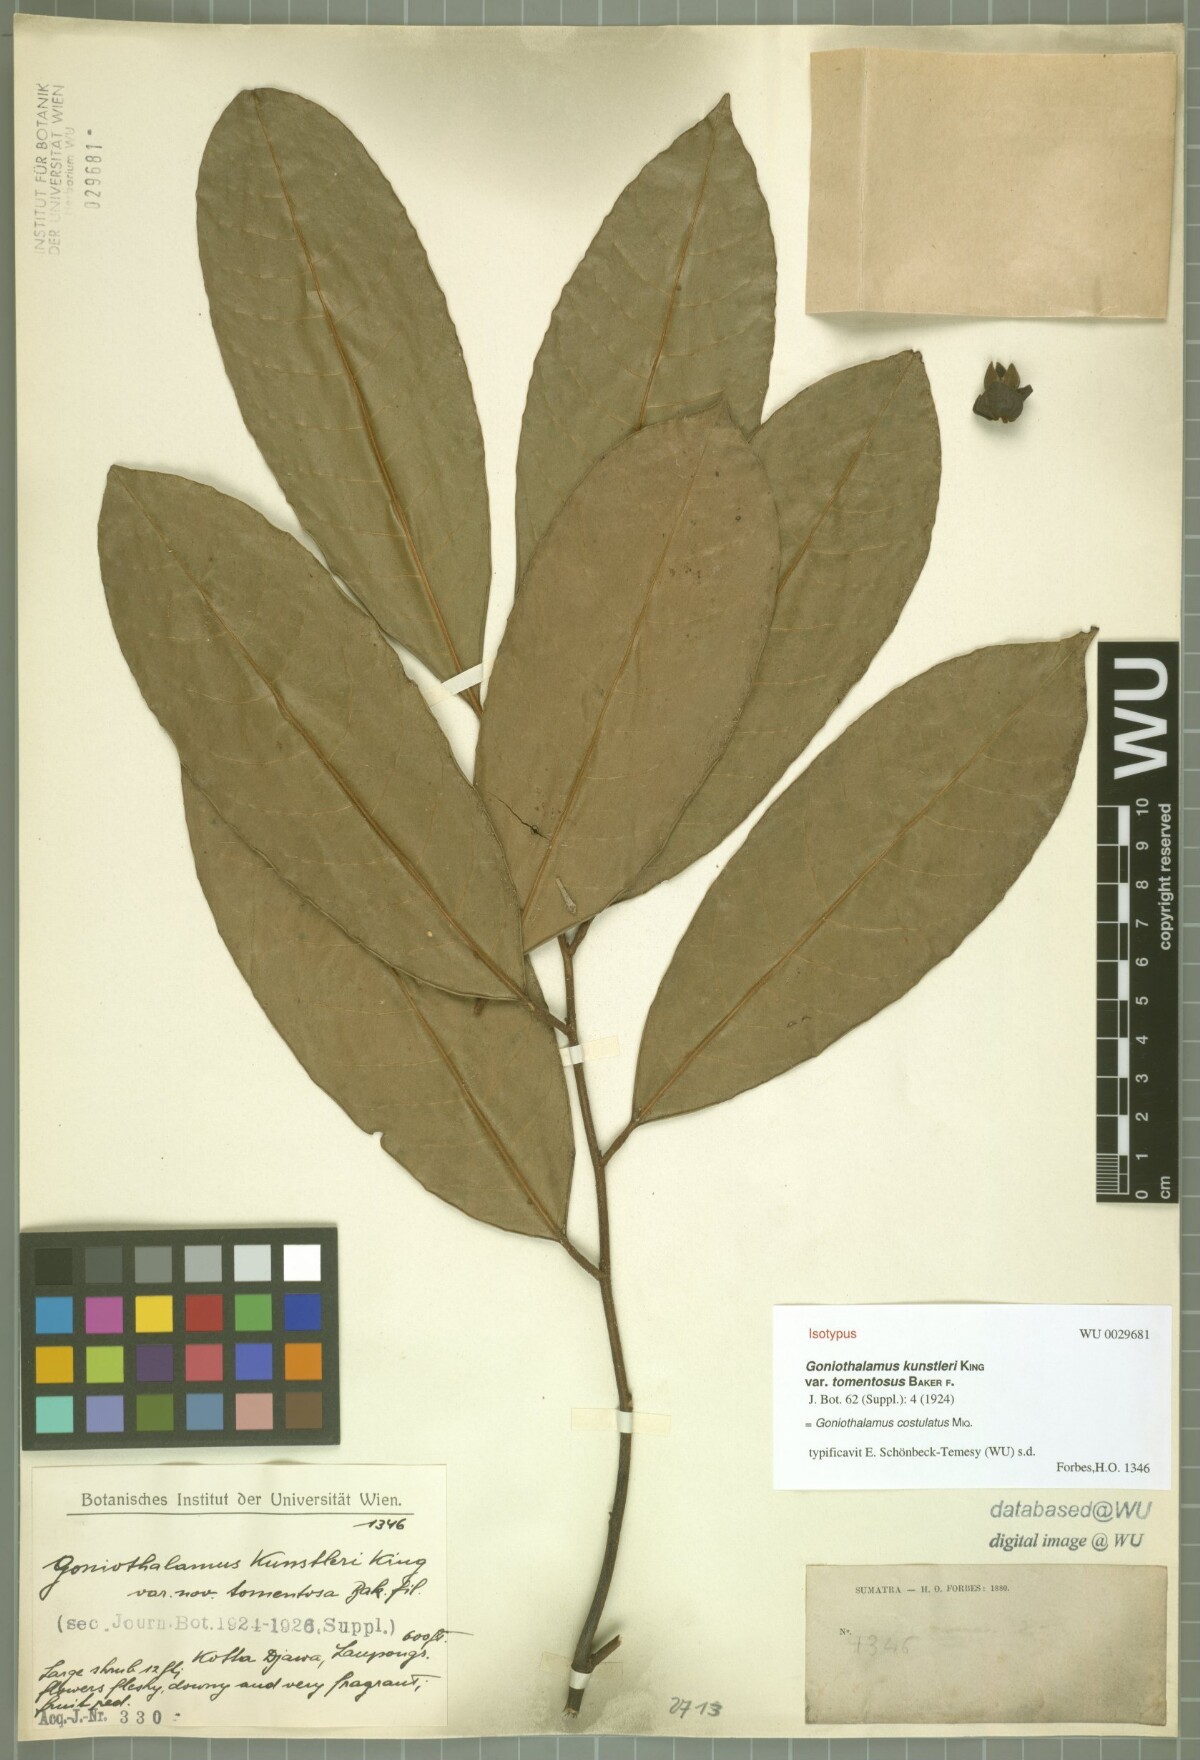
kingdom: Plantae
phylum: Tracheophyta
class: Magnoliopsida
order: Magnoliales
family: Annonaceae
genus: Goniothalamus
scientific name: Goniothalamus costulatus
